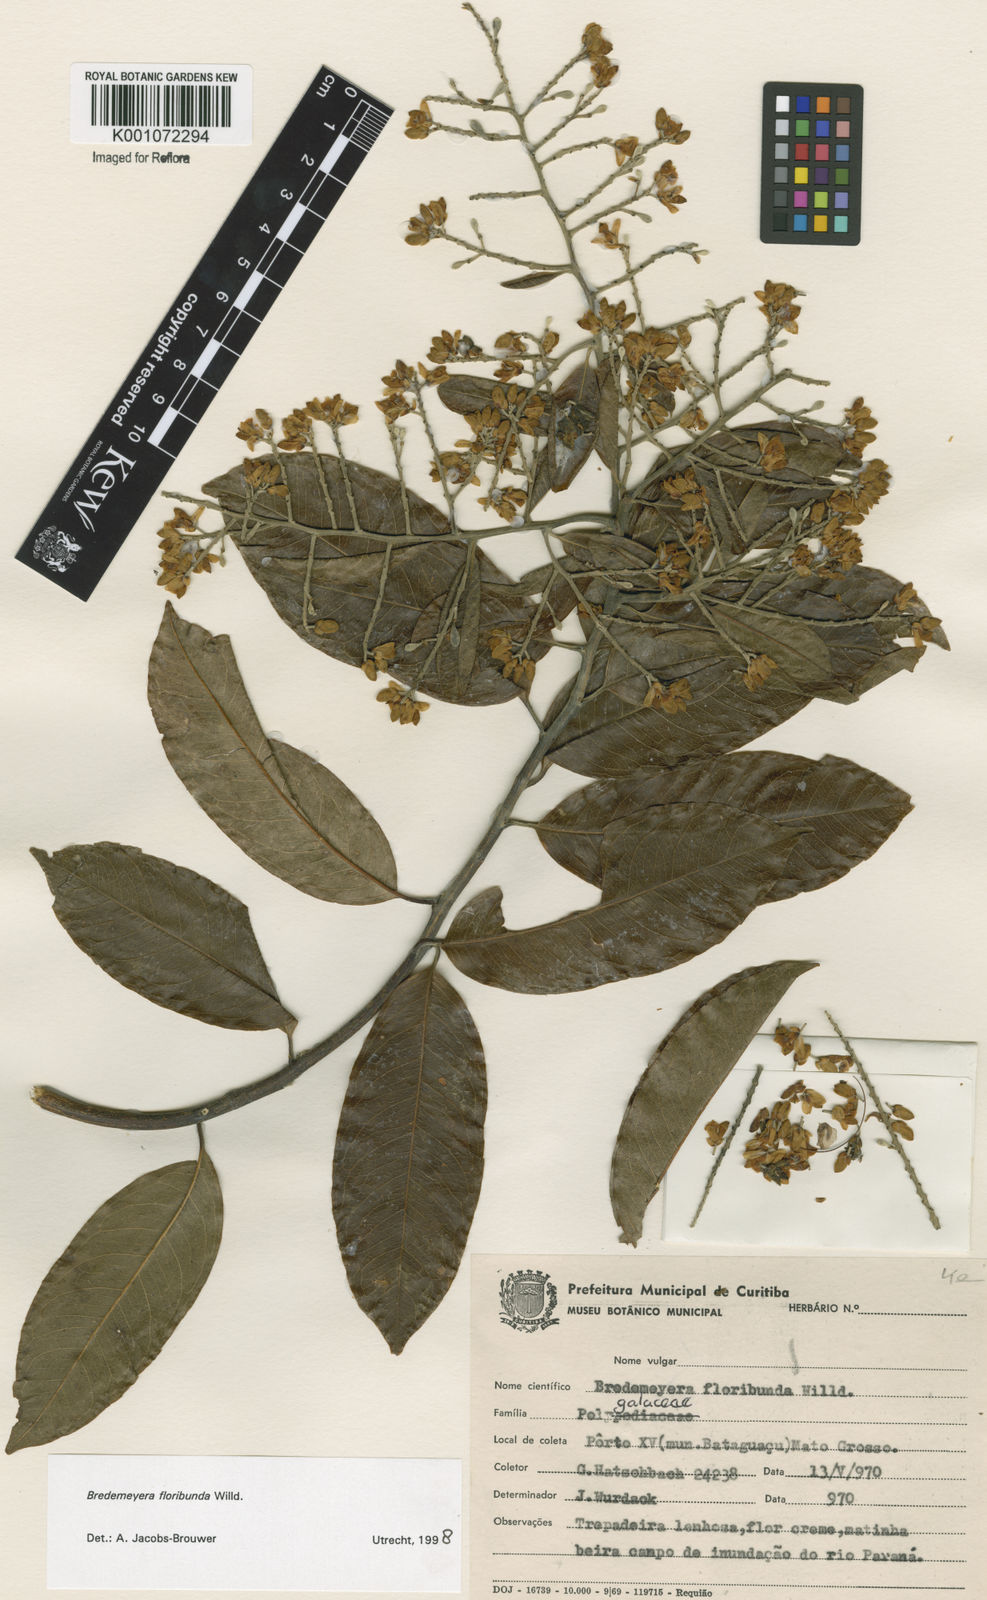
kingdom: Plantae
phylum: Tracheophyta
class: Magnoliopsida
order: Fabales
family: Polygalaceae
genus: Bredemeyera
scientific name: Bredemeyera floribunda
